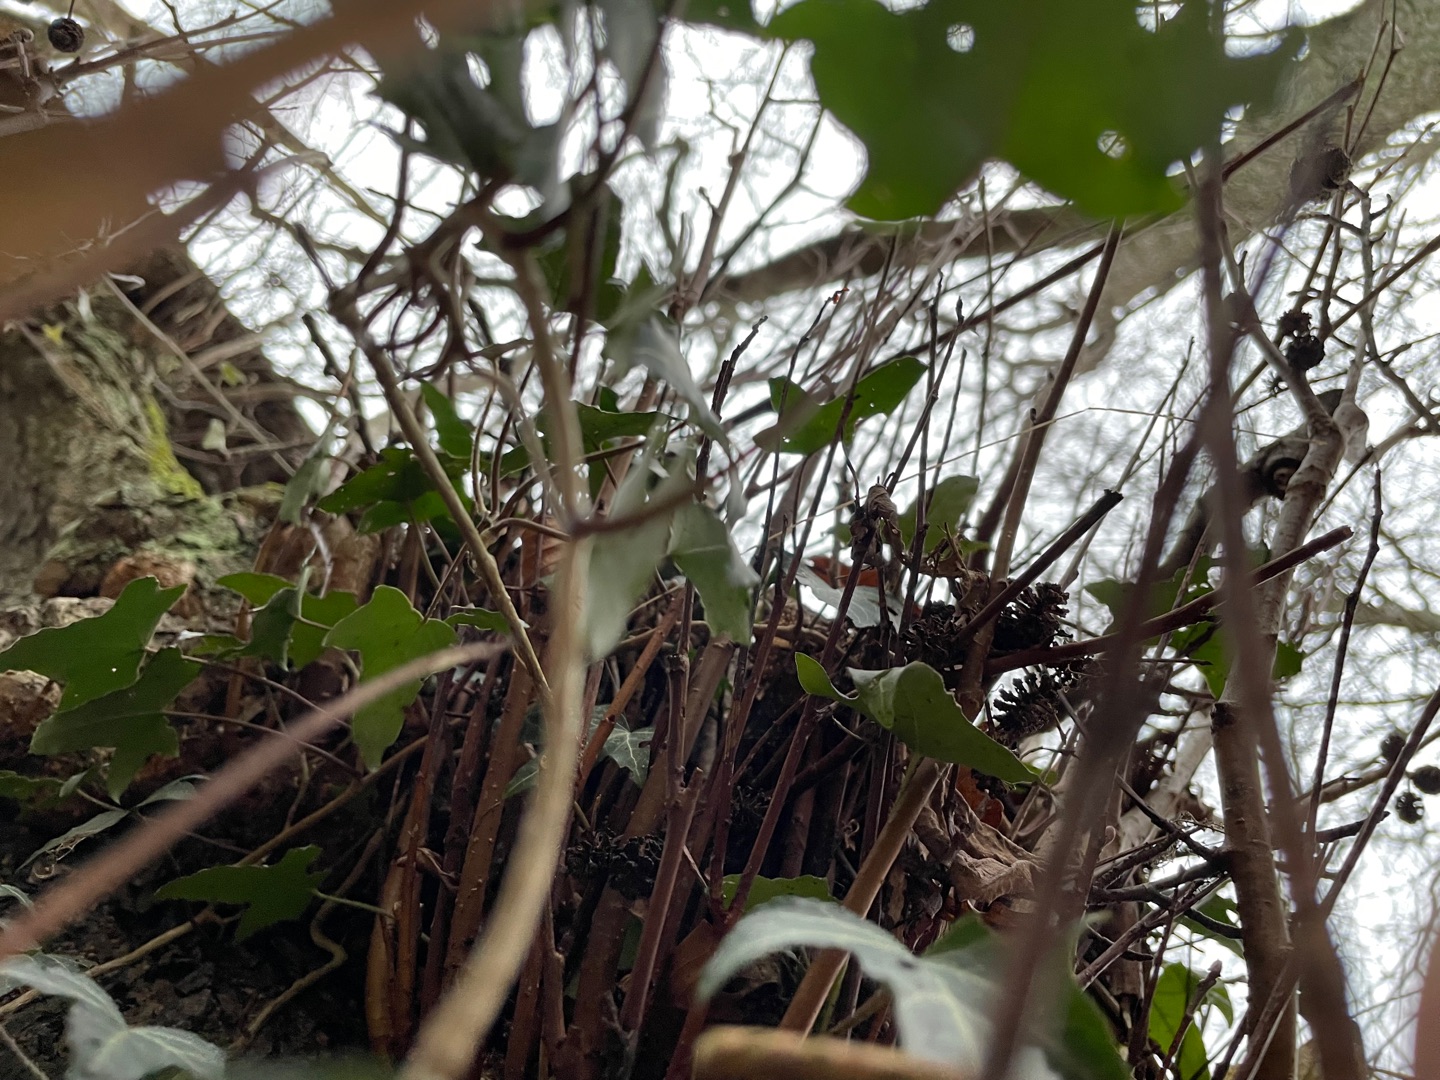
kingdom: Plantae
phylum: Tracheophyta
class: Magnoliopsida
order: Apiales
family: Araliaceae
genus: Hedera
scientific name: Hedera helix
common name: Vedbend
